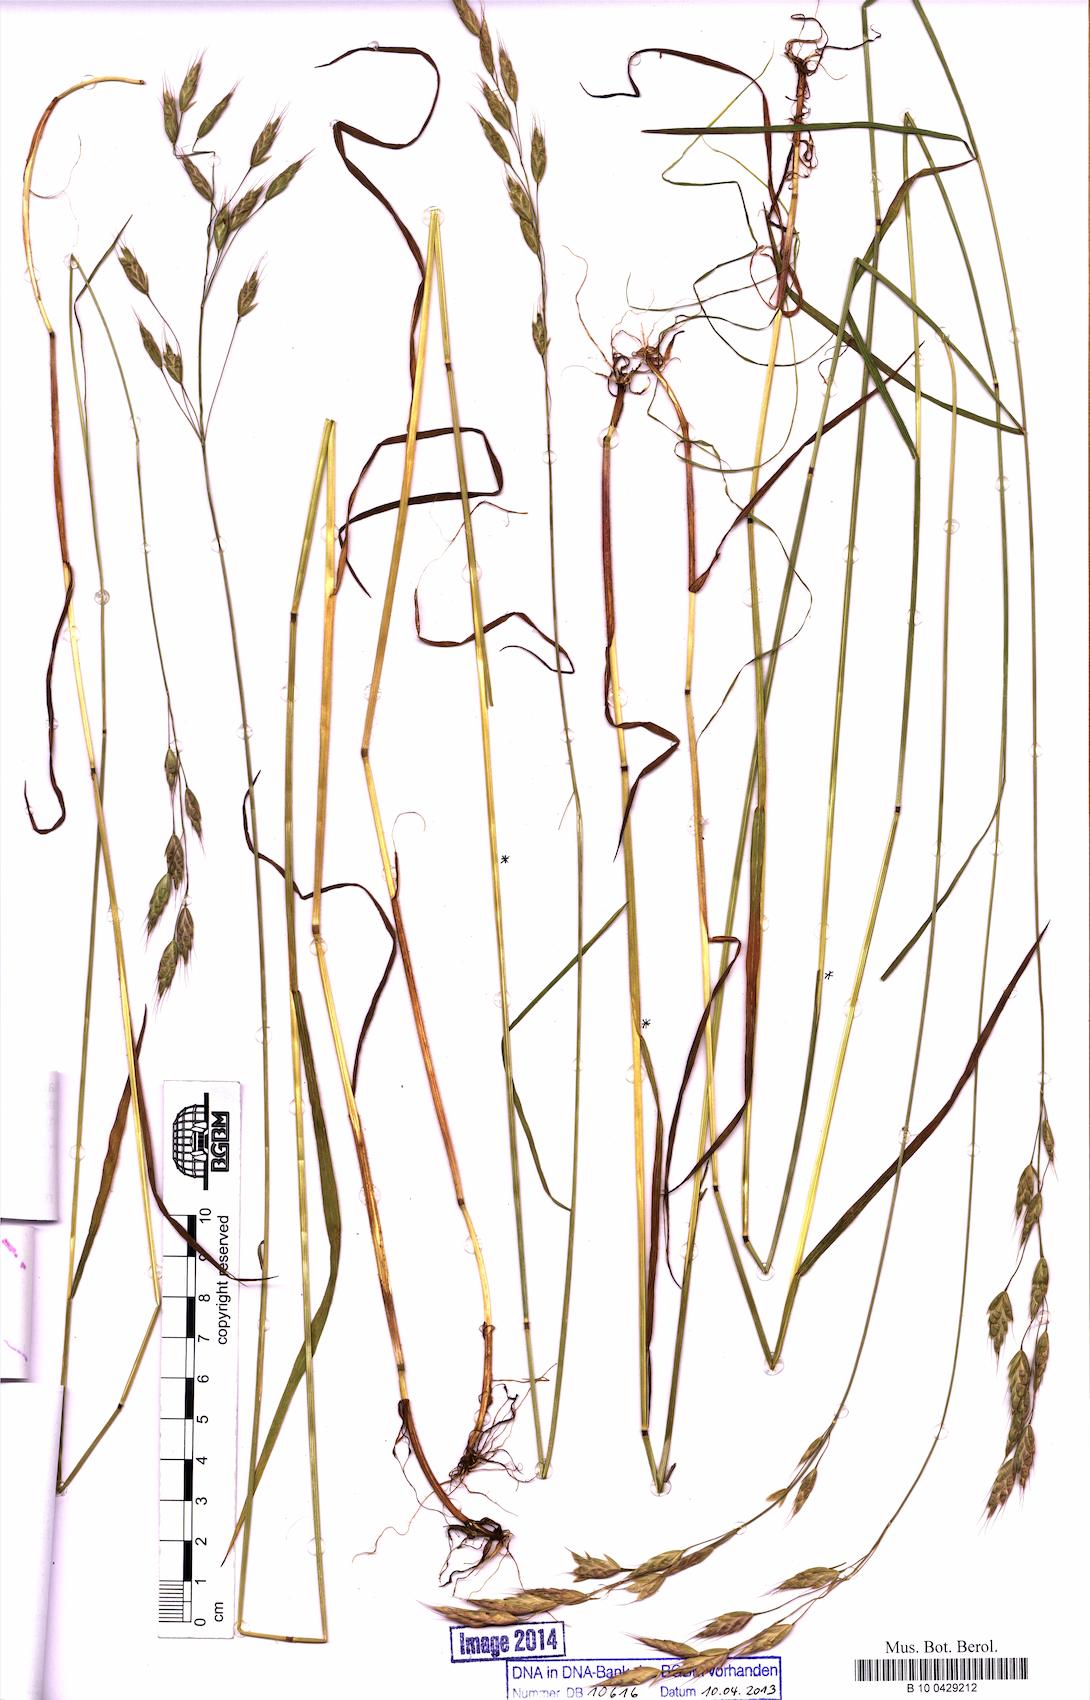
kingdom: Plantae
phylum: Tracheophyta
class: Liliopsida
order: Poales
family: Poaceae
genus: Bromus
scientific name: Bromus racemosus
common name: Bald brome
